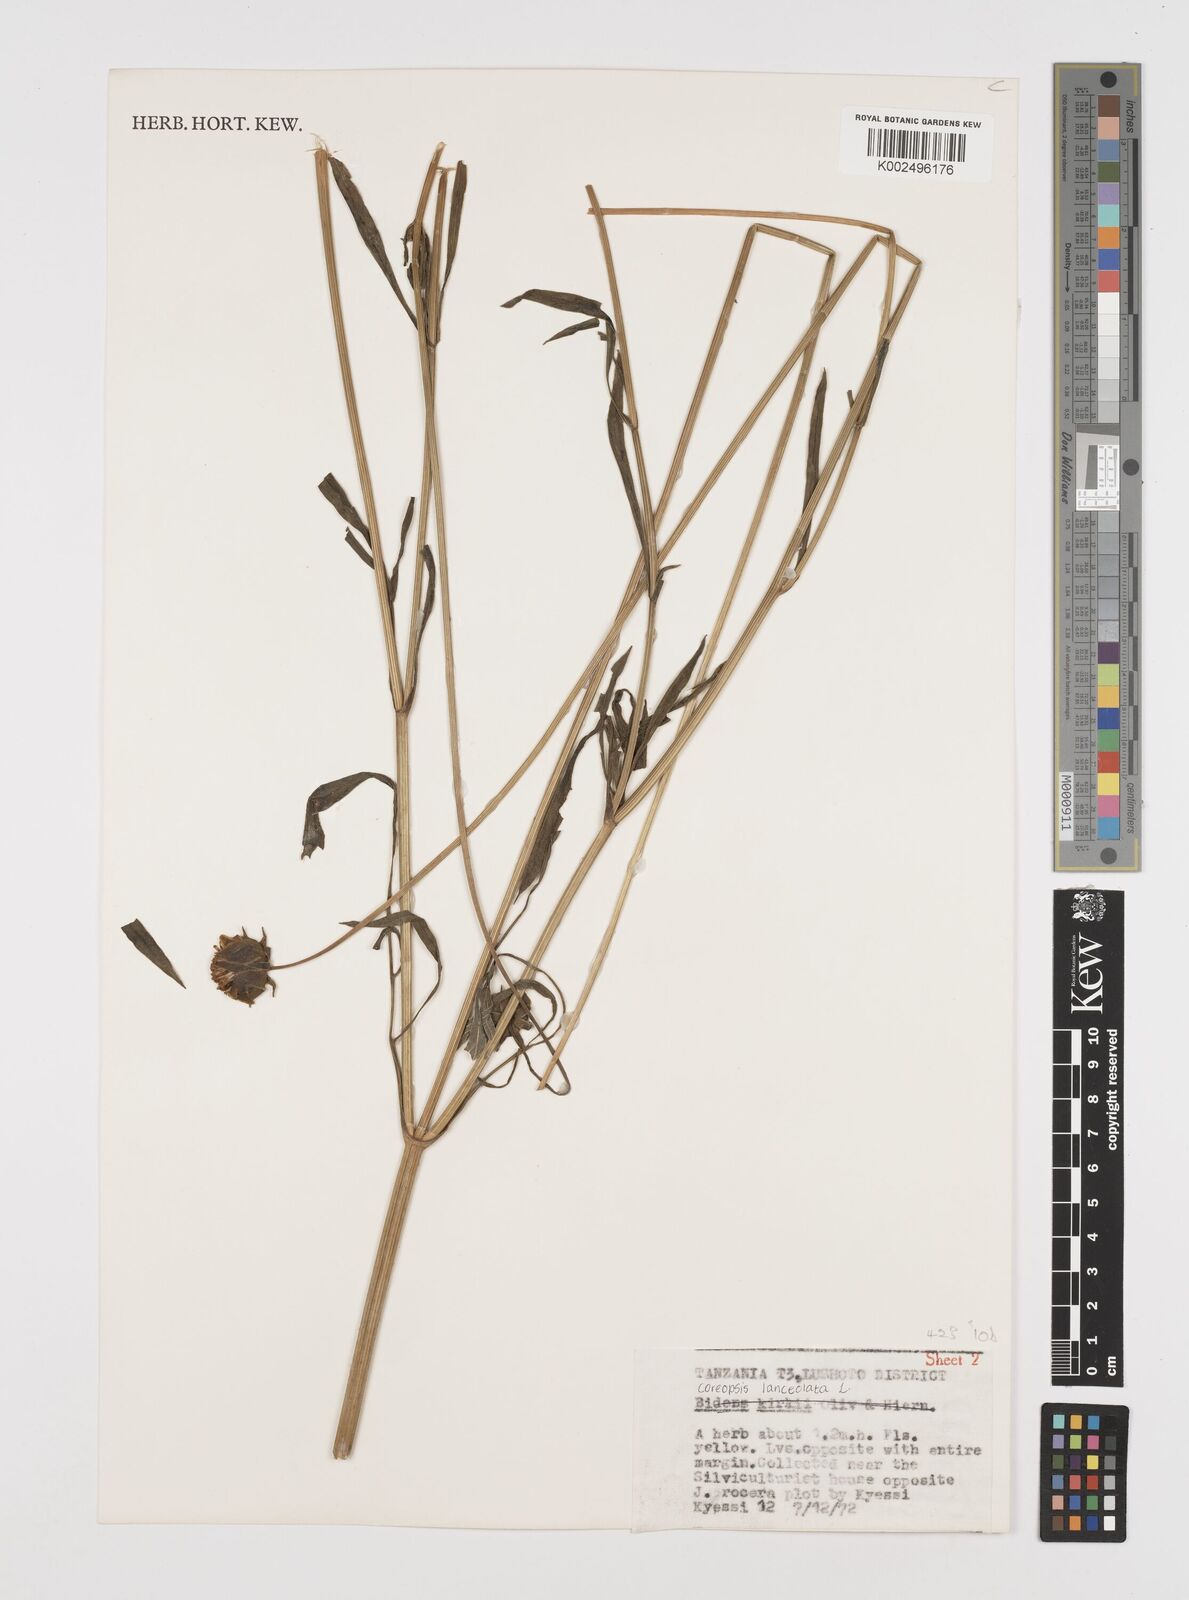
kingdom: Plantae
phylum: Tracheophyta
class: Magnoliopsida
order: Asterales
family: Asteraceae
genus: Coreopsis
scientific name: Coreopsis grandiflora
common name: Large-flowered tickseed
